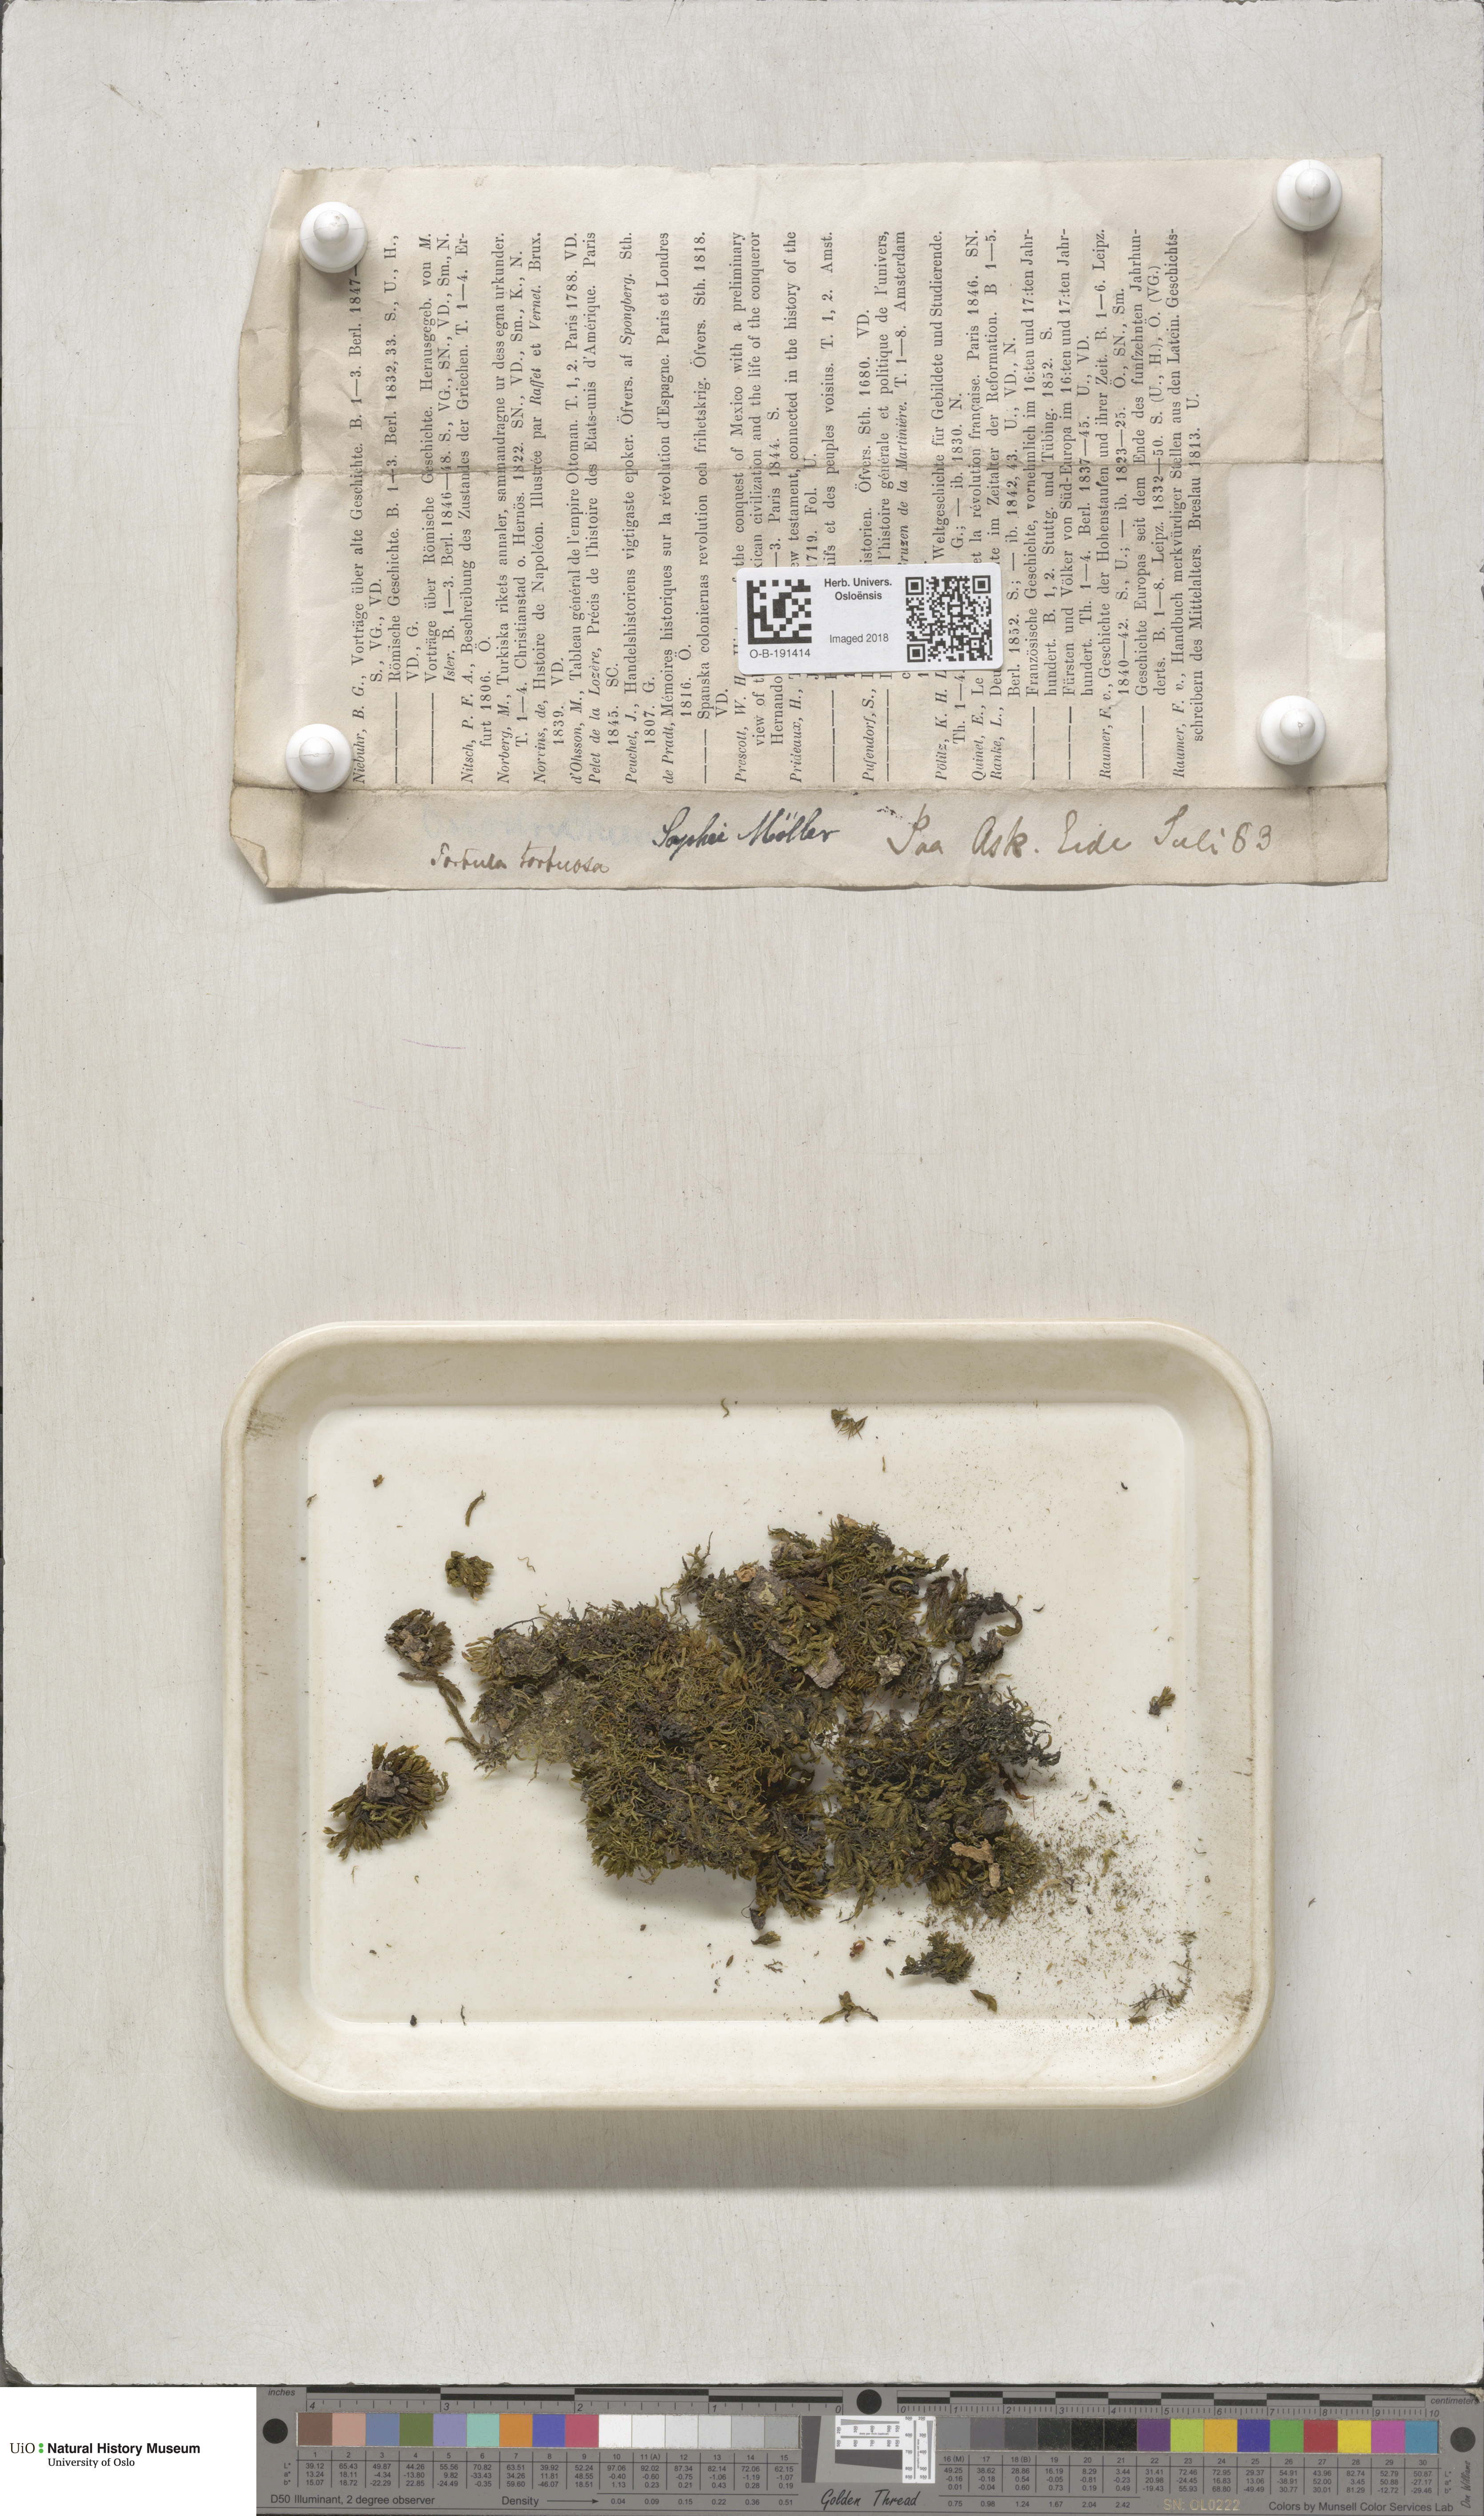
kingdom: Plantae
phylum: Bryophyta
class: Bryopsida
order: Pottiales
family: Pottiaceae
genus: Tortella
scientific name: Tortella tortuosa
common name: Frizzled crisp moss
